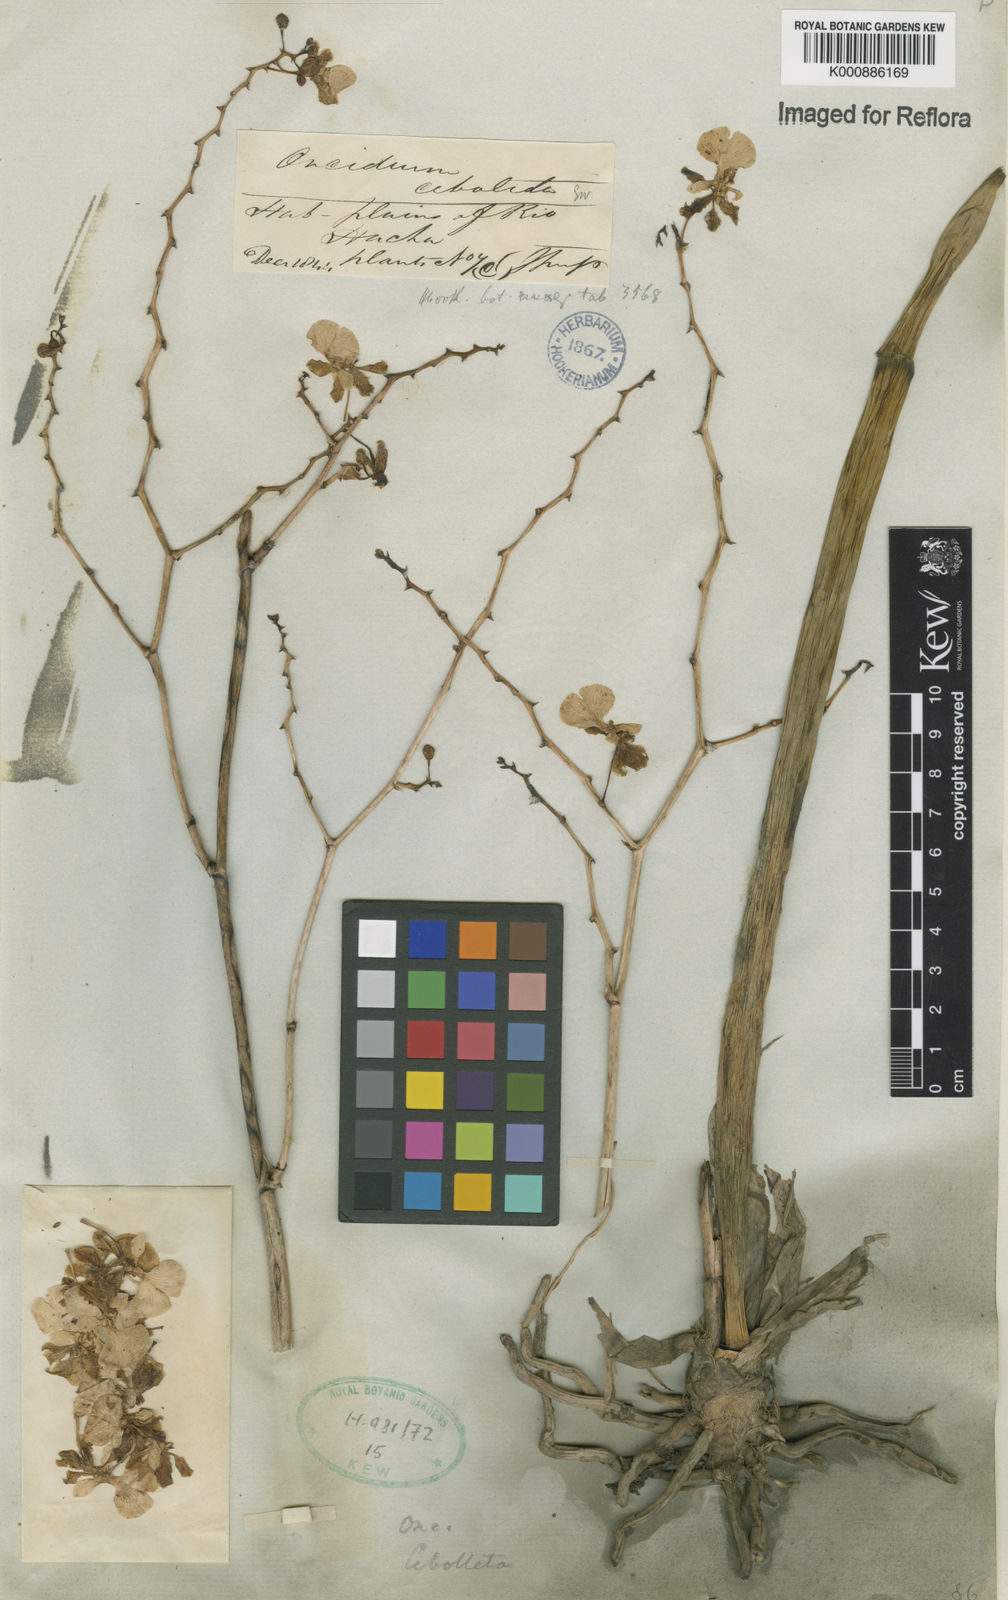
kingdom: Plantae
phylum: Tracheophyta
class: Liliopsida
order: Asparagales
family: Orchidaceae
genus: Trichocentrum
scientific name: Trichocentrum cebolleta
